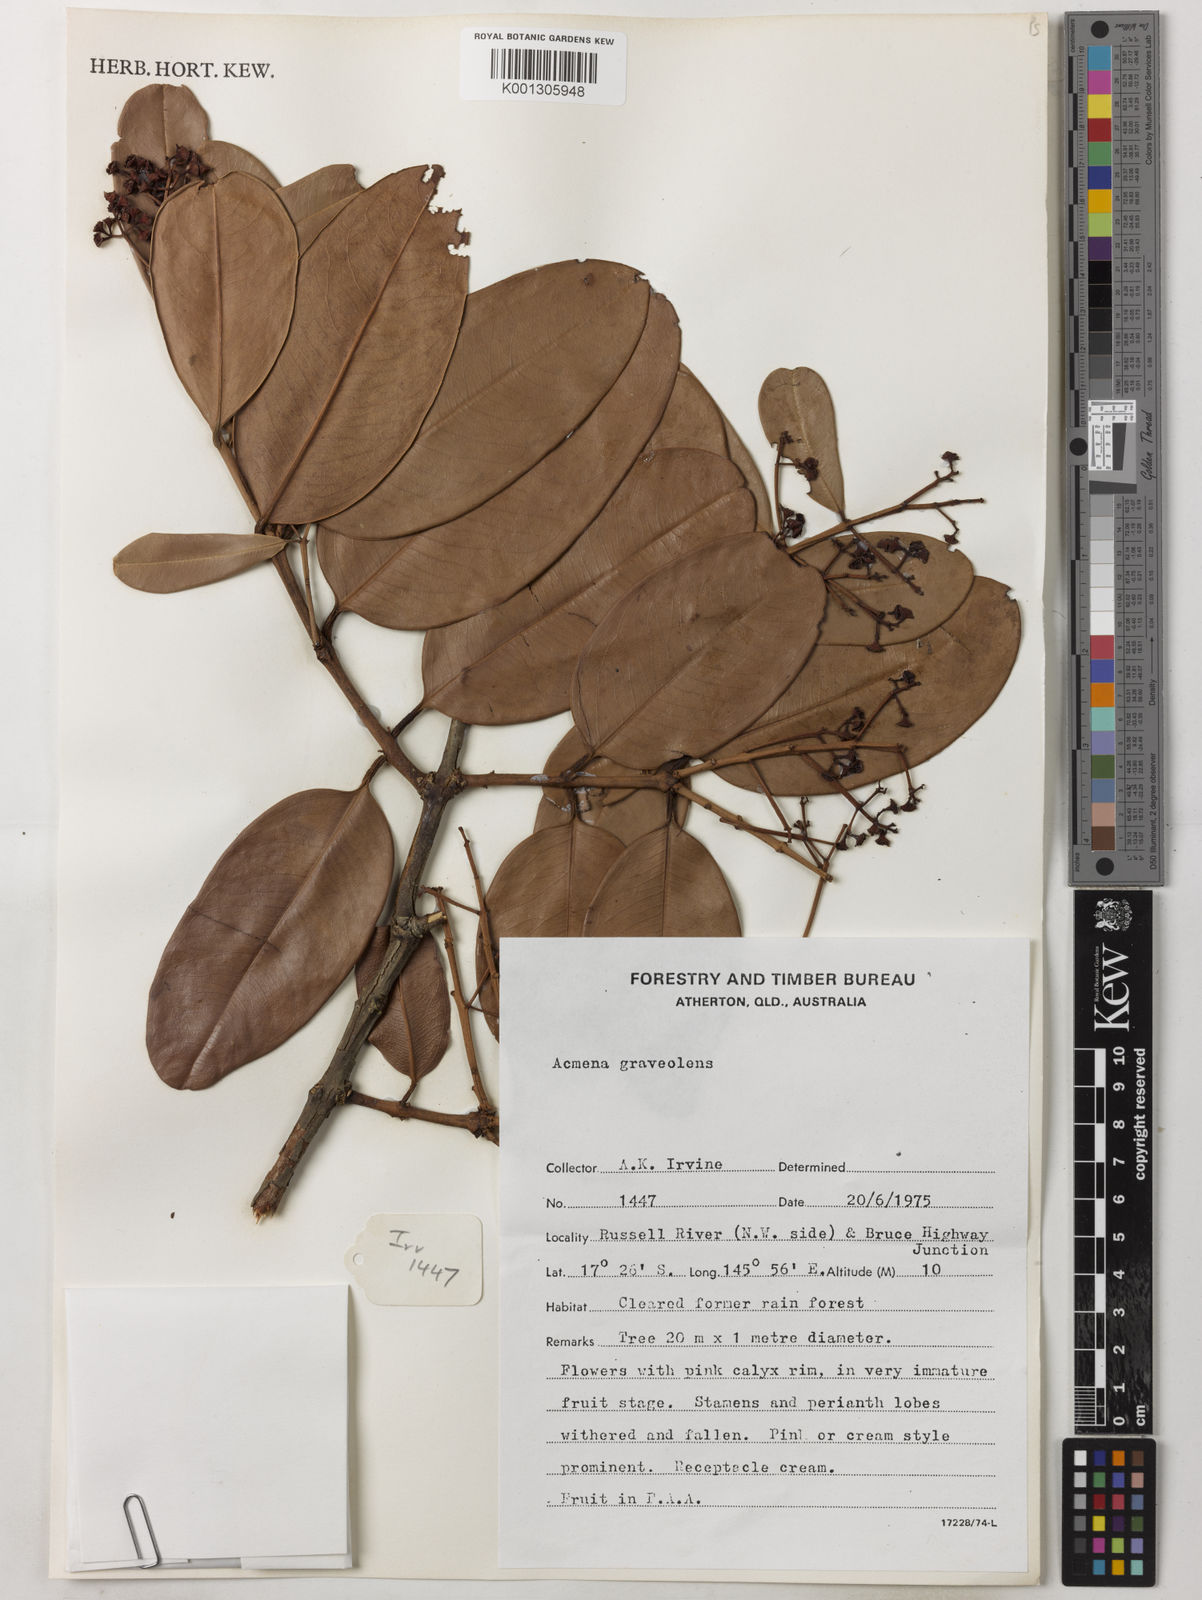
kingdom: Plantae
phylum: Tracheophyta
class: Magnoliopsida
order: Myrtales
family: Myrtaceae
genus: Syzygium
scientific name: Syzygium graveolens
